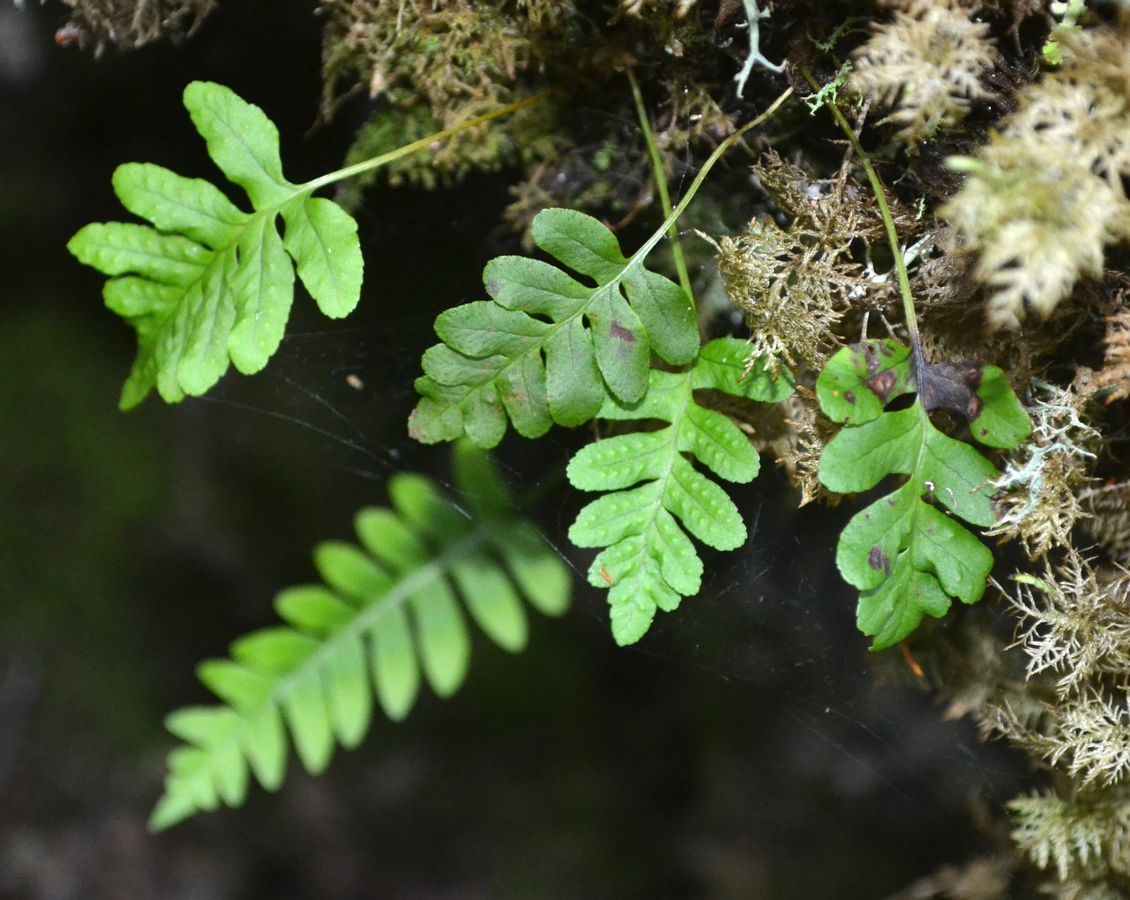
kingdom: Plantae
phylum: Tracheophyta
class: Polypodiopsida
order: Polypodiales
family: Polypodiaceae
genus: Polypodium
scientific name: Polypodium vulgare
